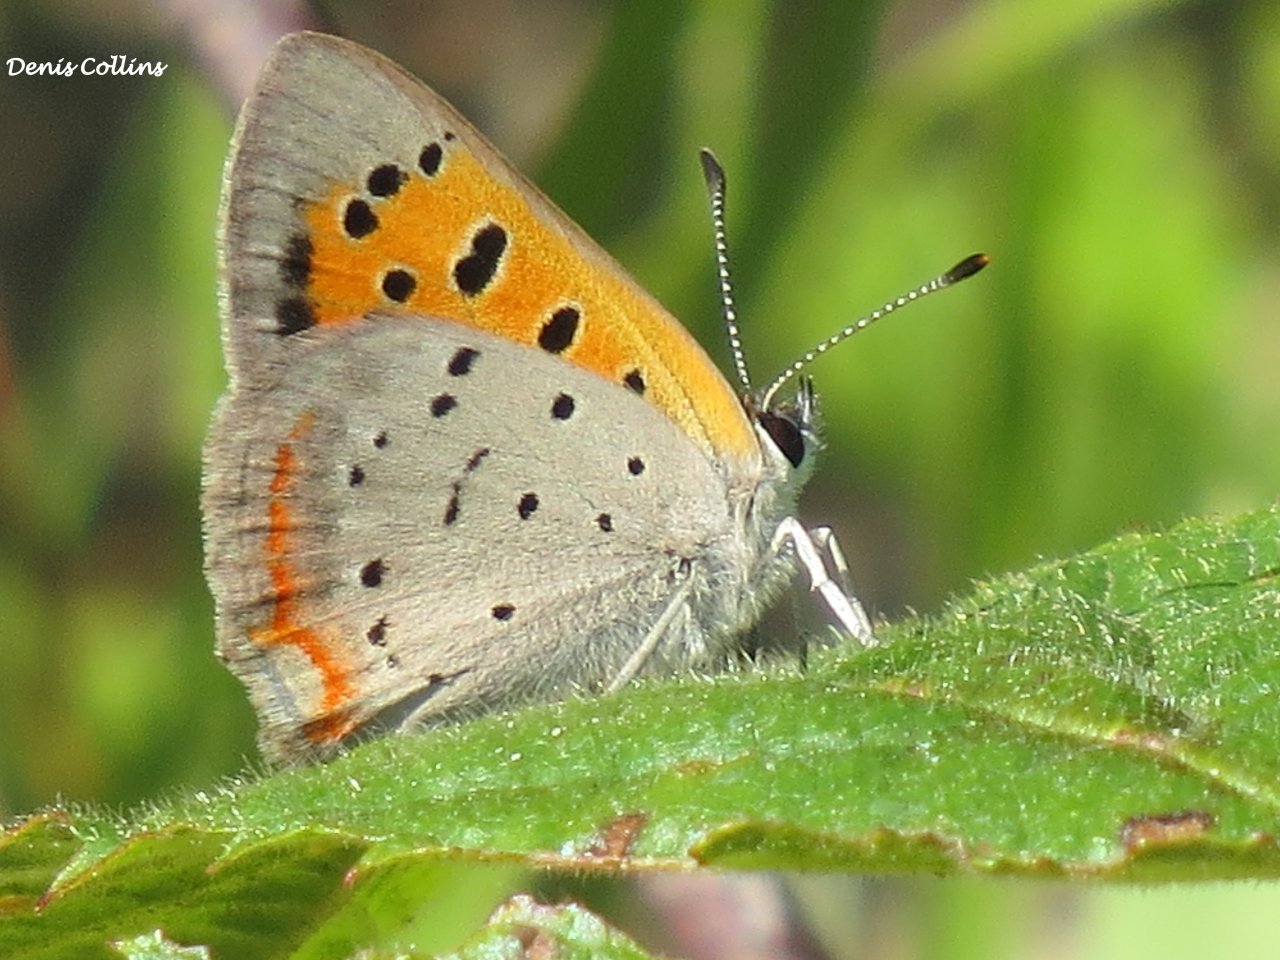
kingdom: Animalia
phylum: Arthropoda
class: Insecta
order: Lepidoptera
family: Lycaenidae
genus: Lycaena
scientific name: Lycaena phlaeas
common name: American Copper
